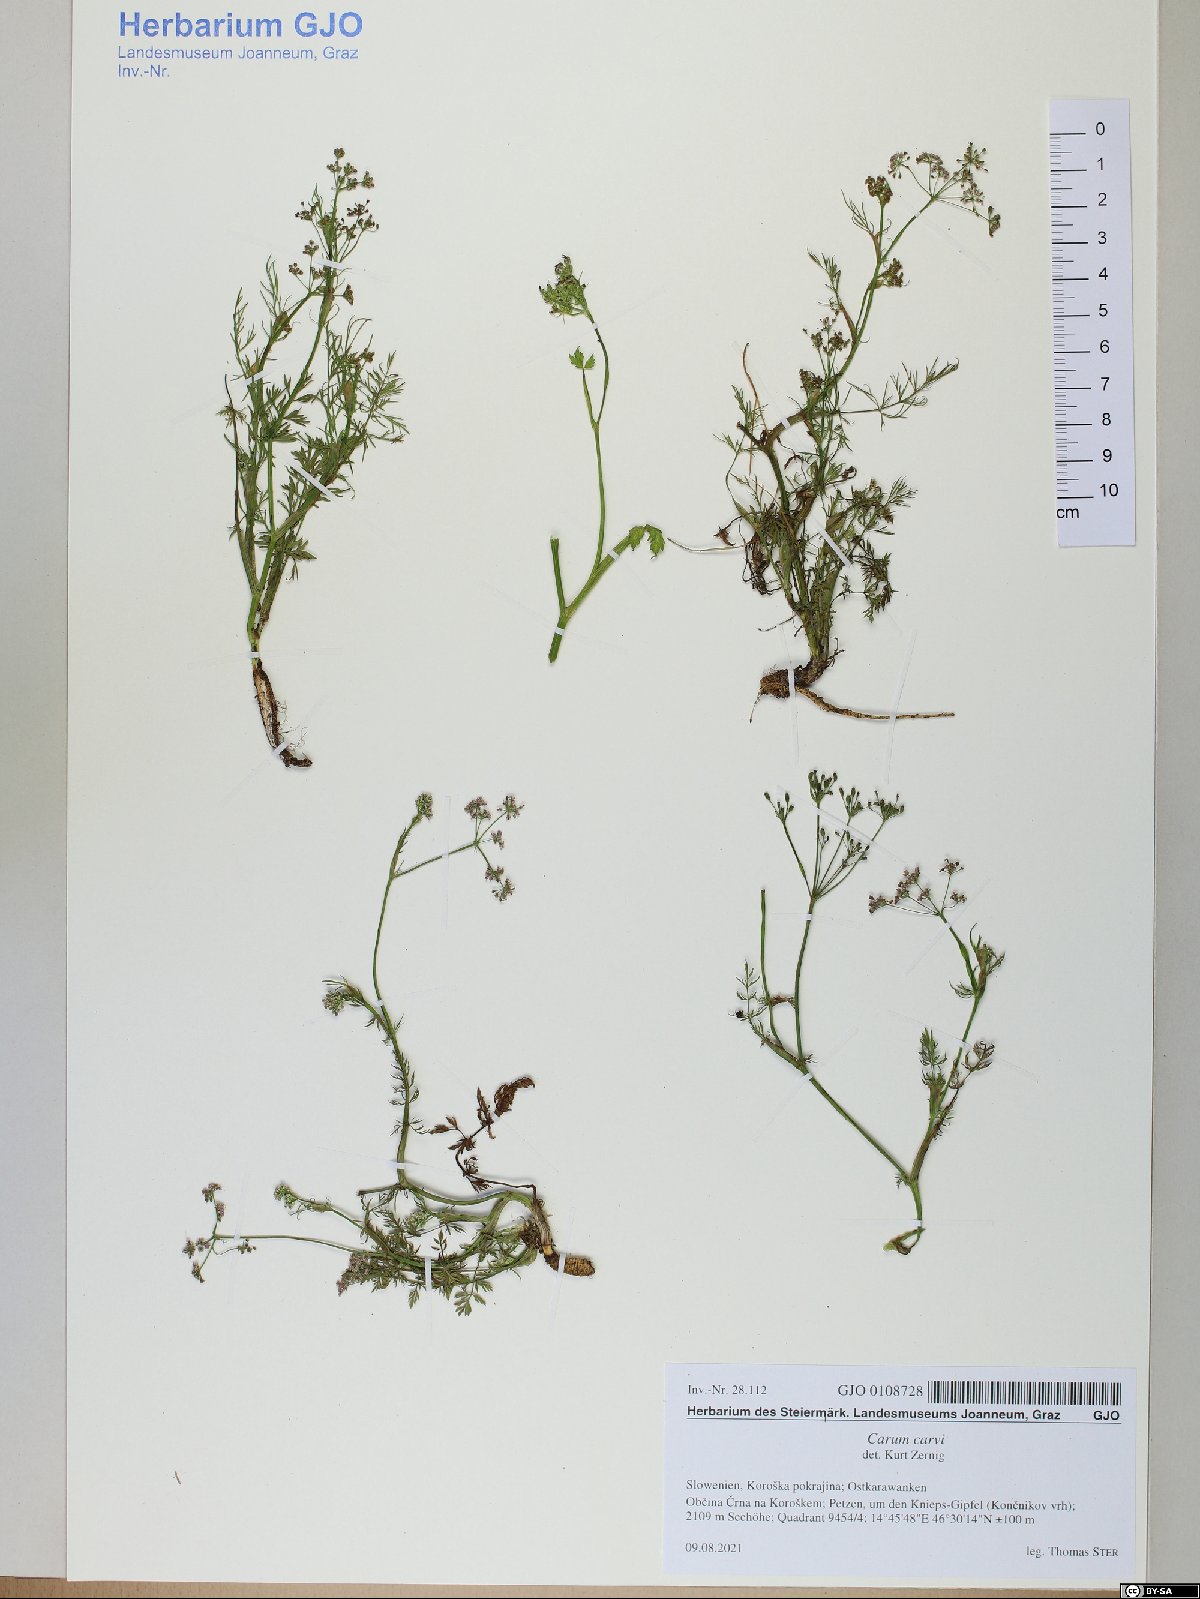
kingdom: Plantae
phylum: Tracheophyta
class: Magnoliopsida
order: Apiales
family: Apiaceae
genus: Carum
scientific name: Carum carvi
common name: Caraway
